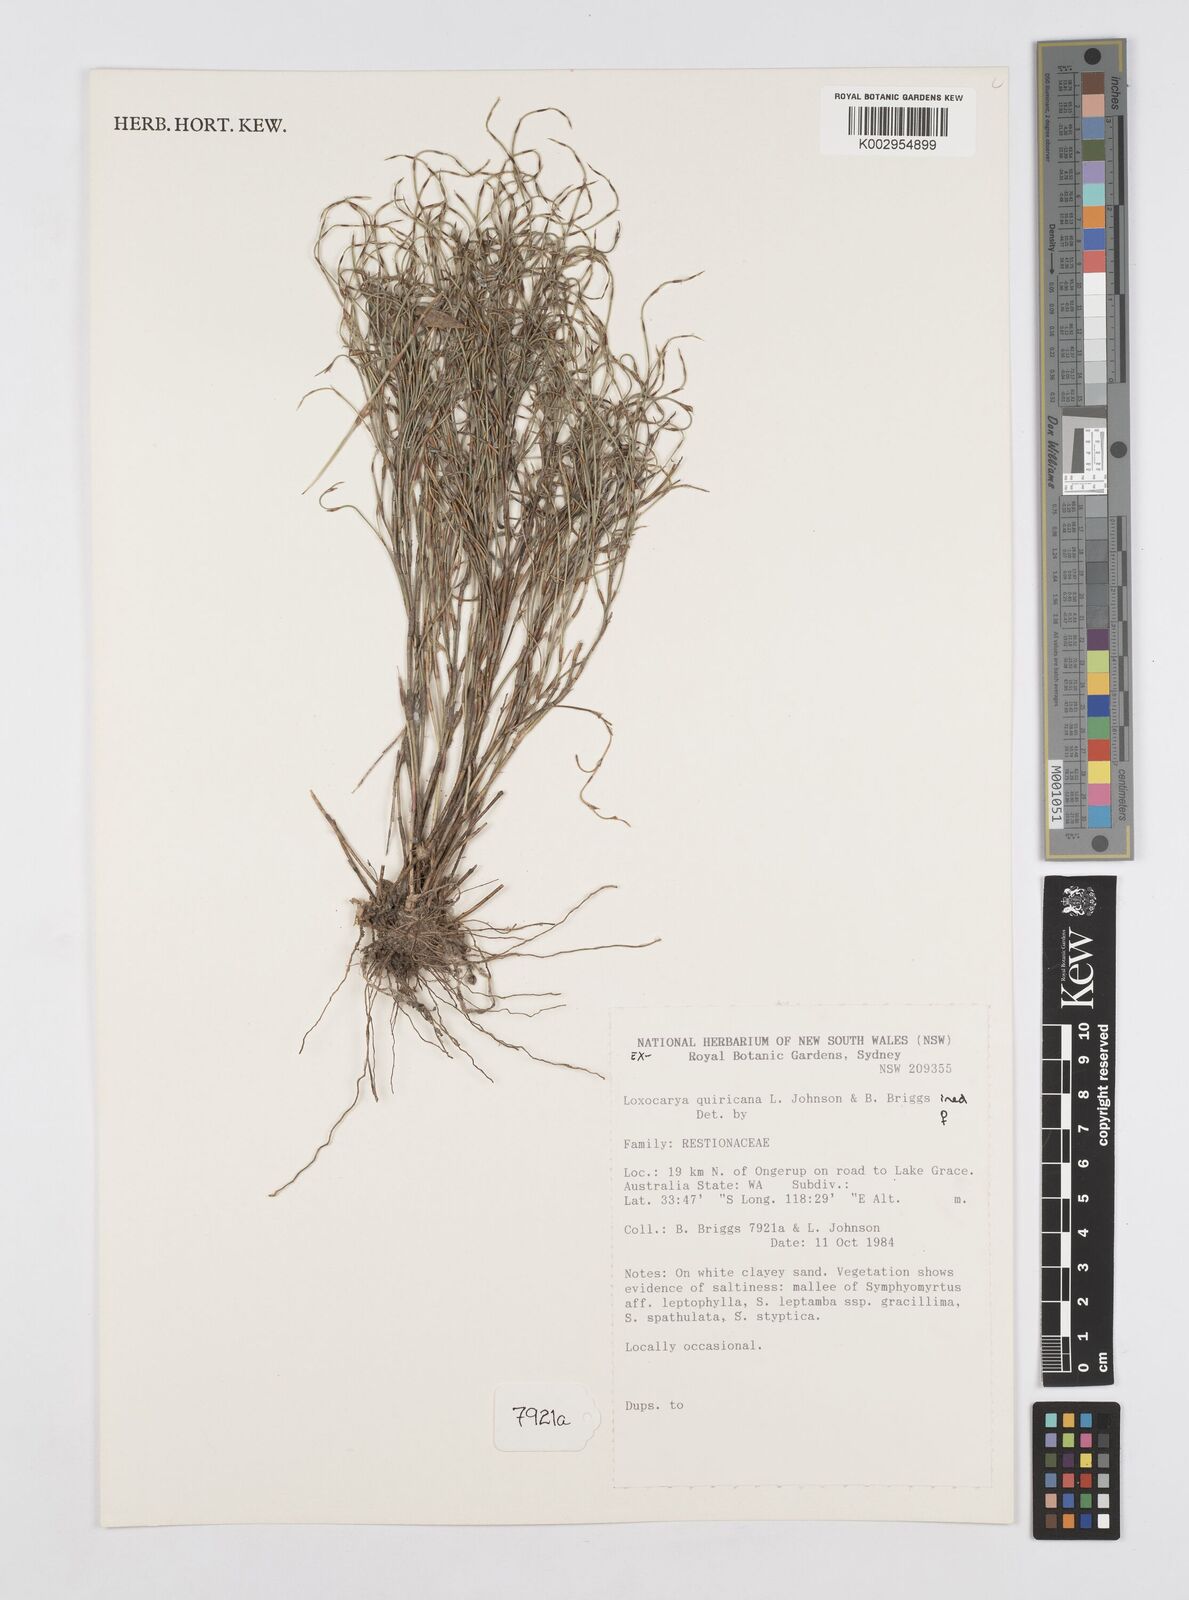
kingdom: Plantae
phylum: Tracheophyta
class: Liliopsida
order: Poales
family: Restionaceae
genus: Desmocladus
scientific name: Desmocladus quiricanus
